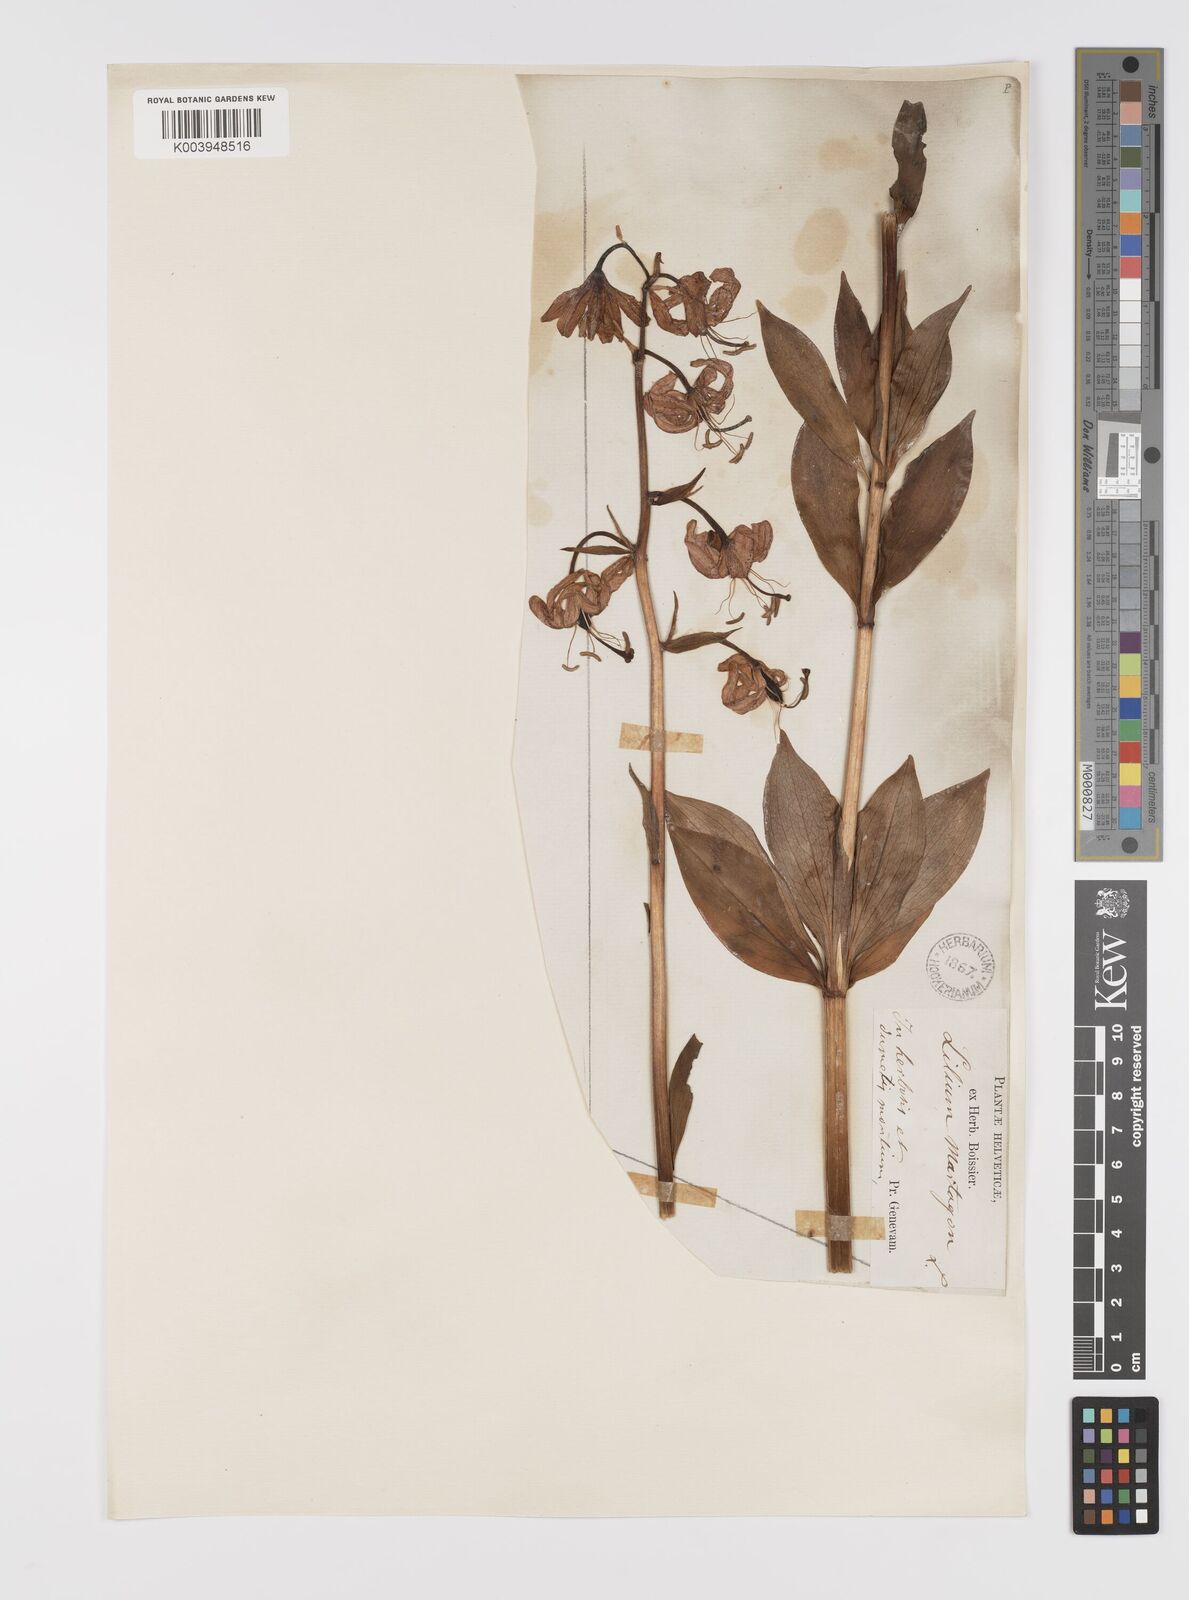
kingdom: Plantae
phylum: Tracheophyta
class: Liliopsida
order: Liliales
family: Liliaceae
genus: Lilium
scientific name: Lilium martagon
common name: Martagon lily
